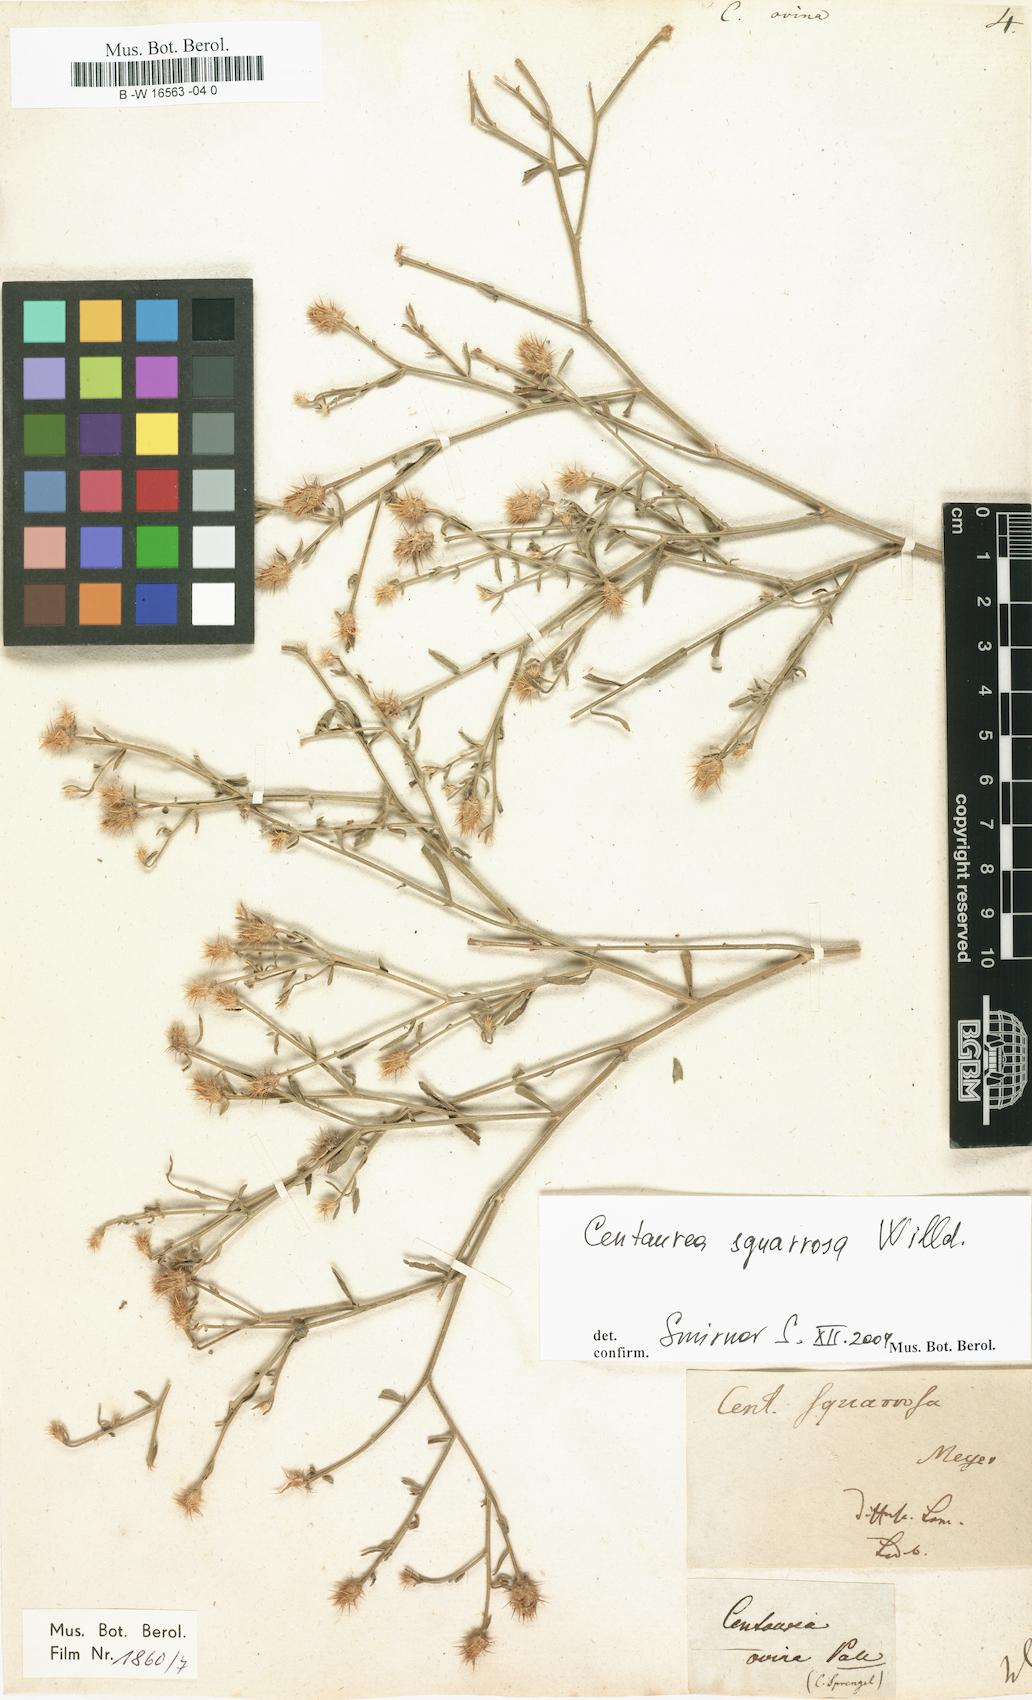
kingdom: Plantae
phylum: Tracheophyta
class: Magnoliopsida
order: Asterales
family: Asteraceae
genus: Centaurea
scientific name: Centaurea ovina
